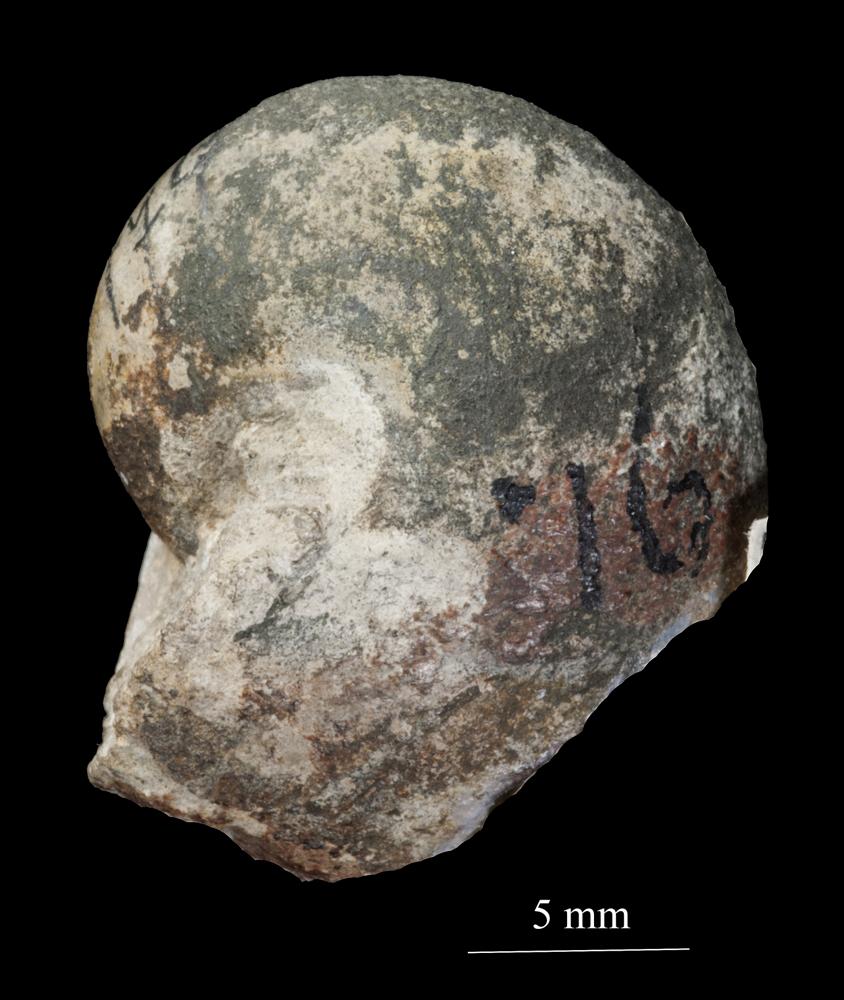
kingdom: Animalia
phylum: Mollusca
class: Gastropoda
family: Sinuitidae
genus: Sinuites
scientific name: Sinuites bilobatus
